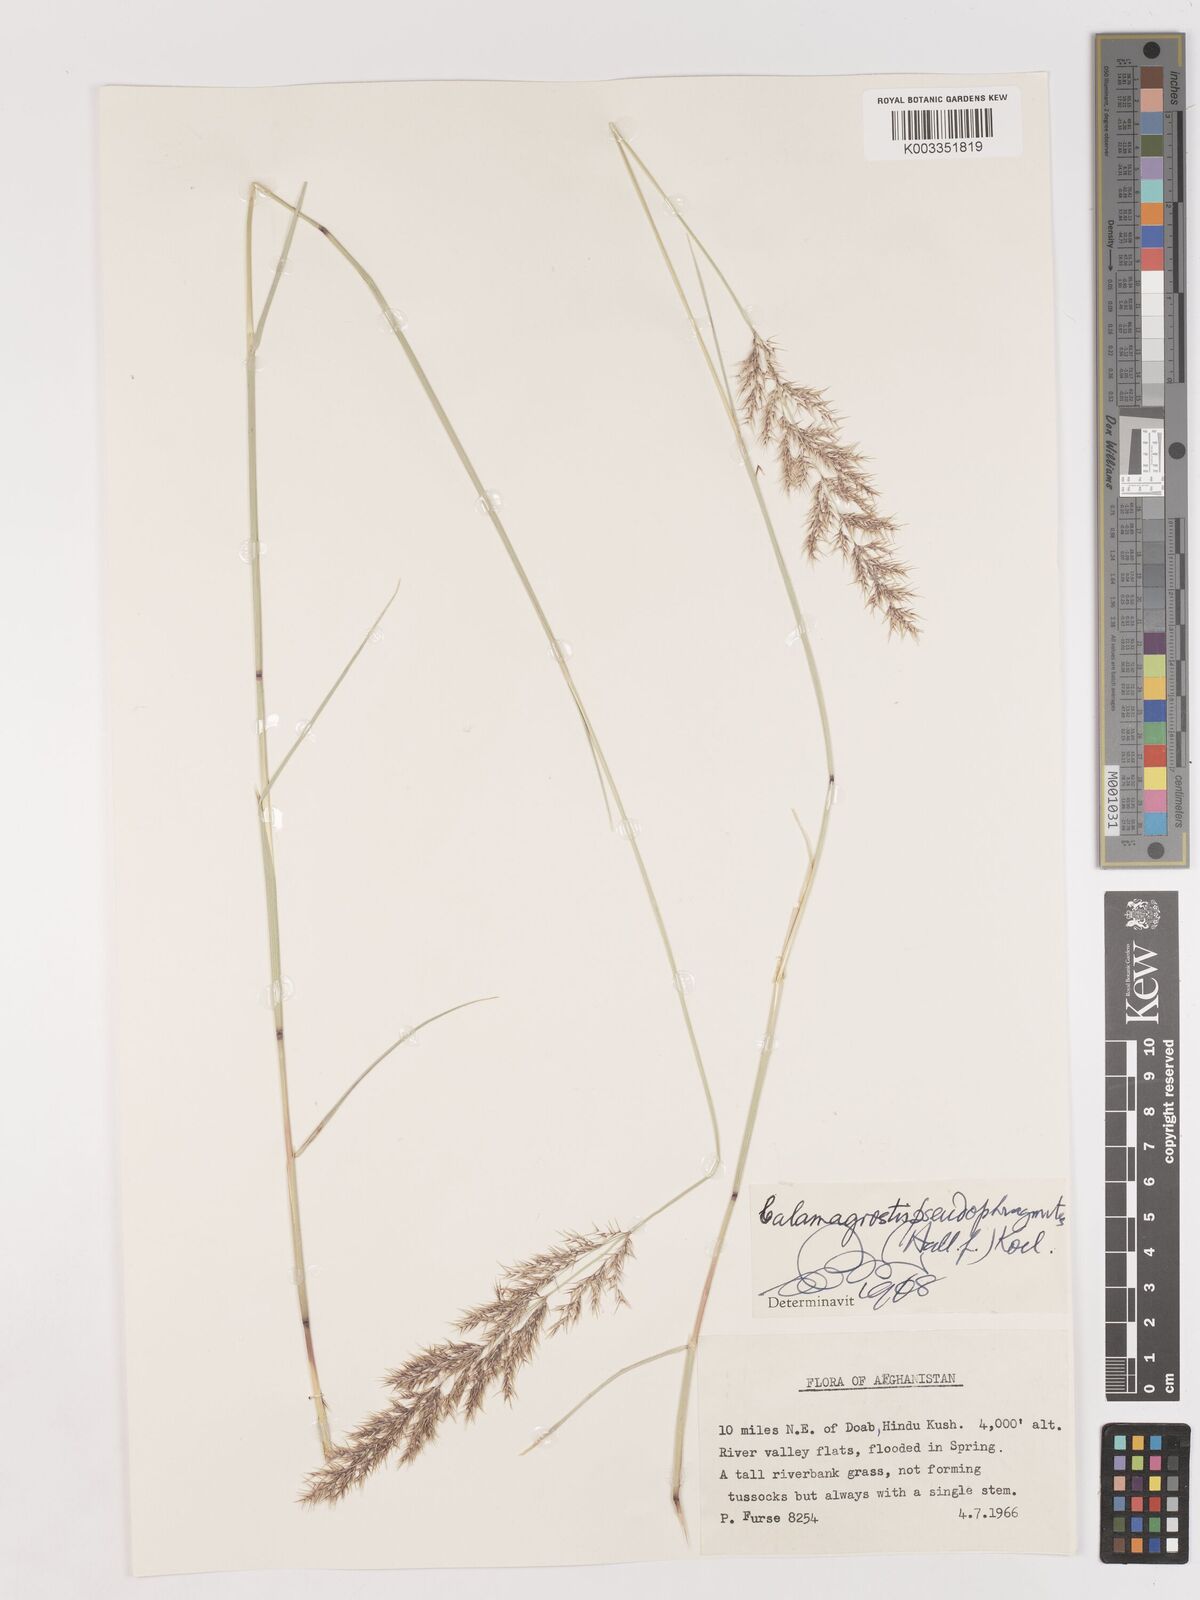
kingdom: Plantae
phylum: Tracheophyta
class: Liliopsida
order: Poales
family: Poaceae
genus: Calamagrostis
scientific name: Calamagrostis pseudophragmites
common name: Coastal small-reed
